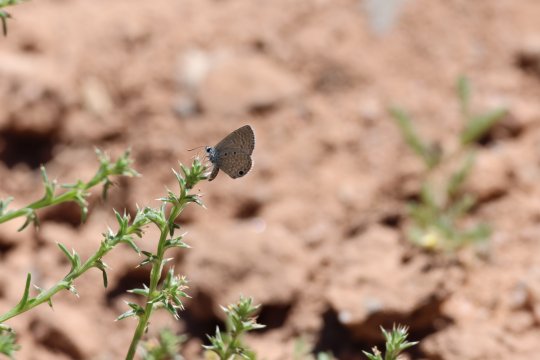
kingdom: Animalia
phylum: Arthropoda
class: Insecta
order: Lepidoptera
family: Lycaenidae
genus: Hemiargus
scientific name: Hemiargus ceraunus
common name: Ceraunus Blue
